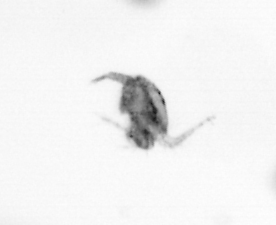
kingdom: Animalia
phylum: Arthropoda
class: Copepoda
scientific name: Copepoda
